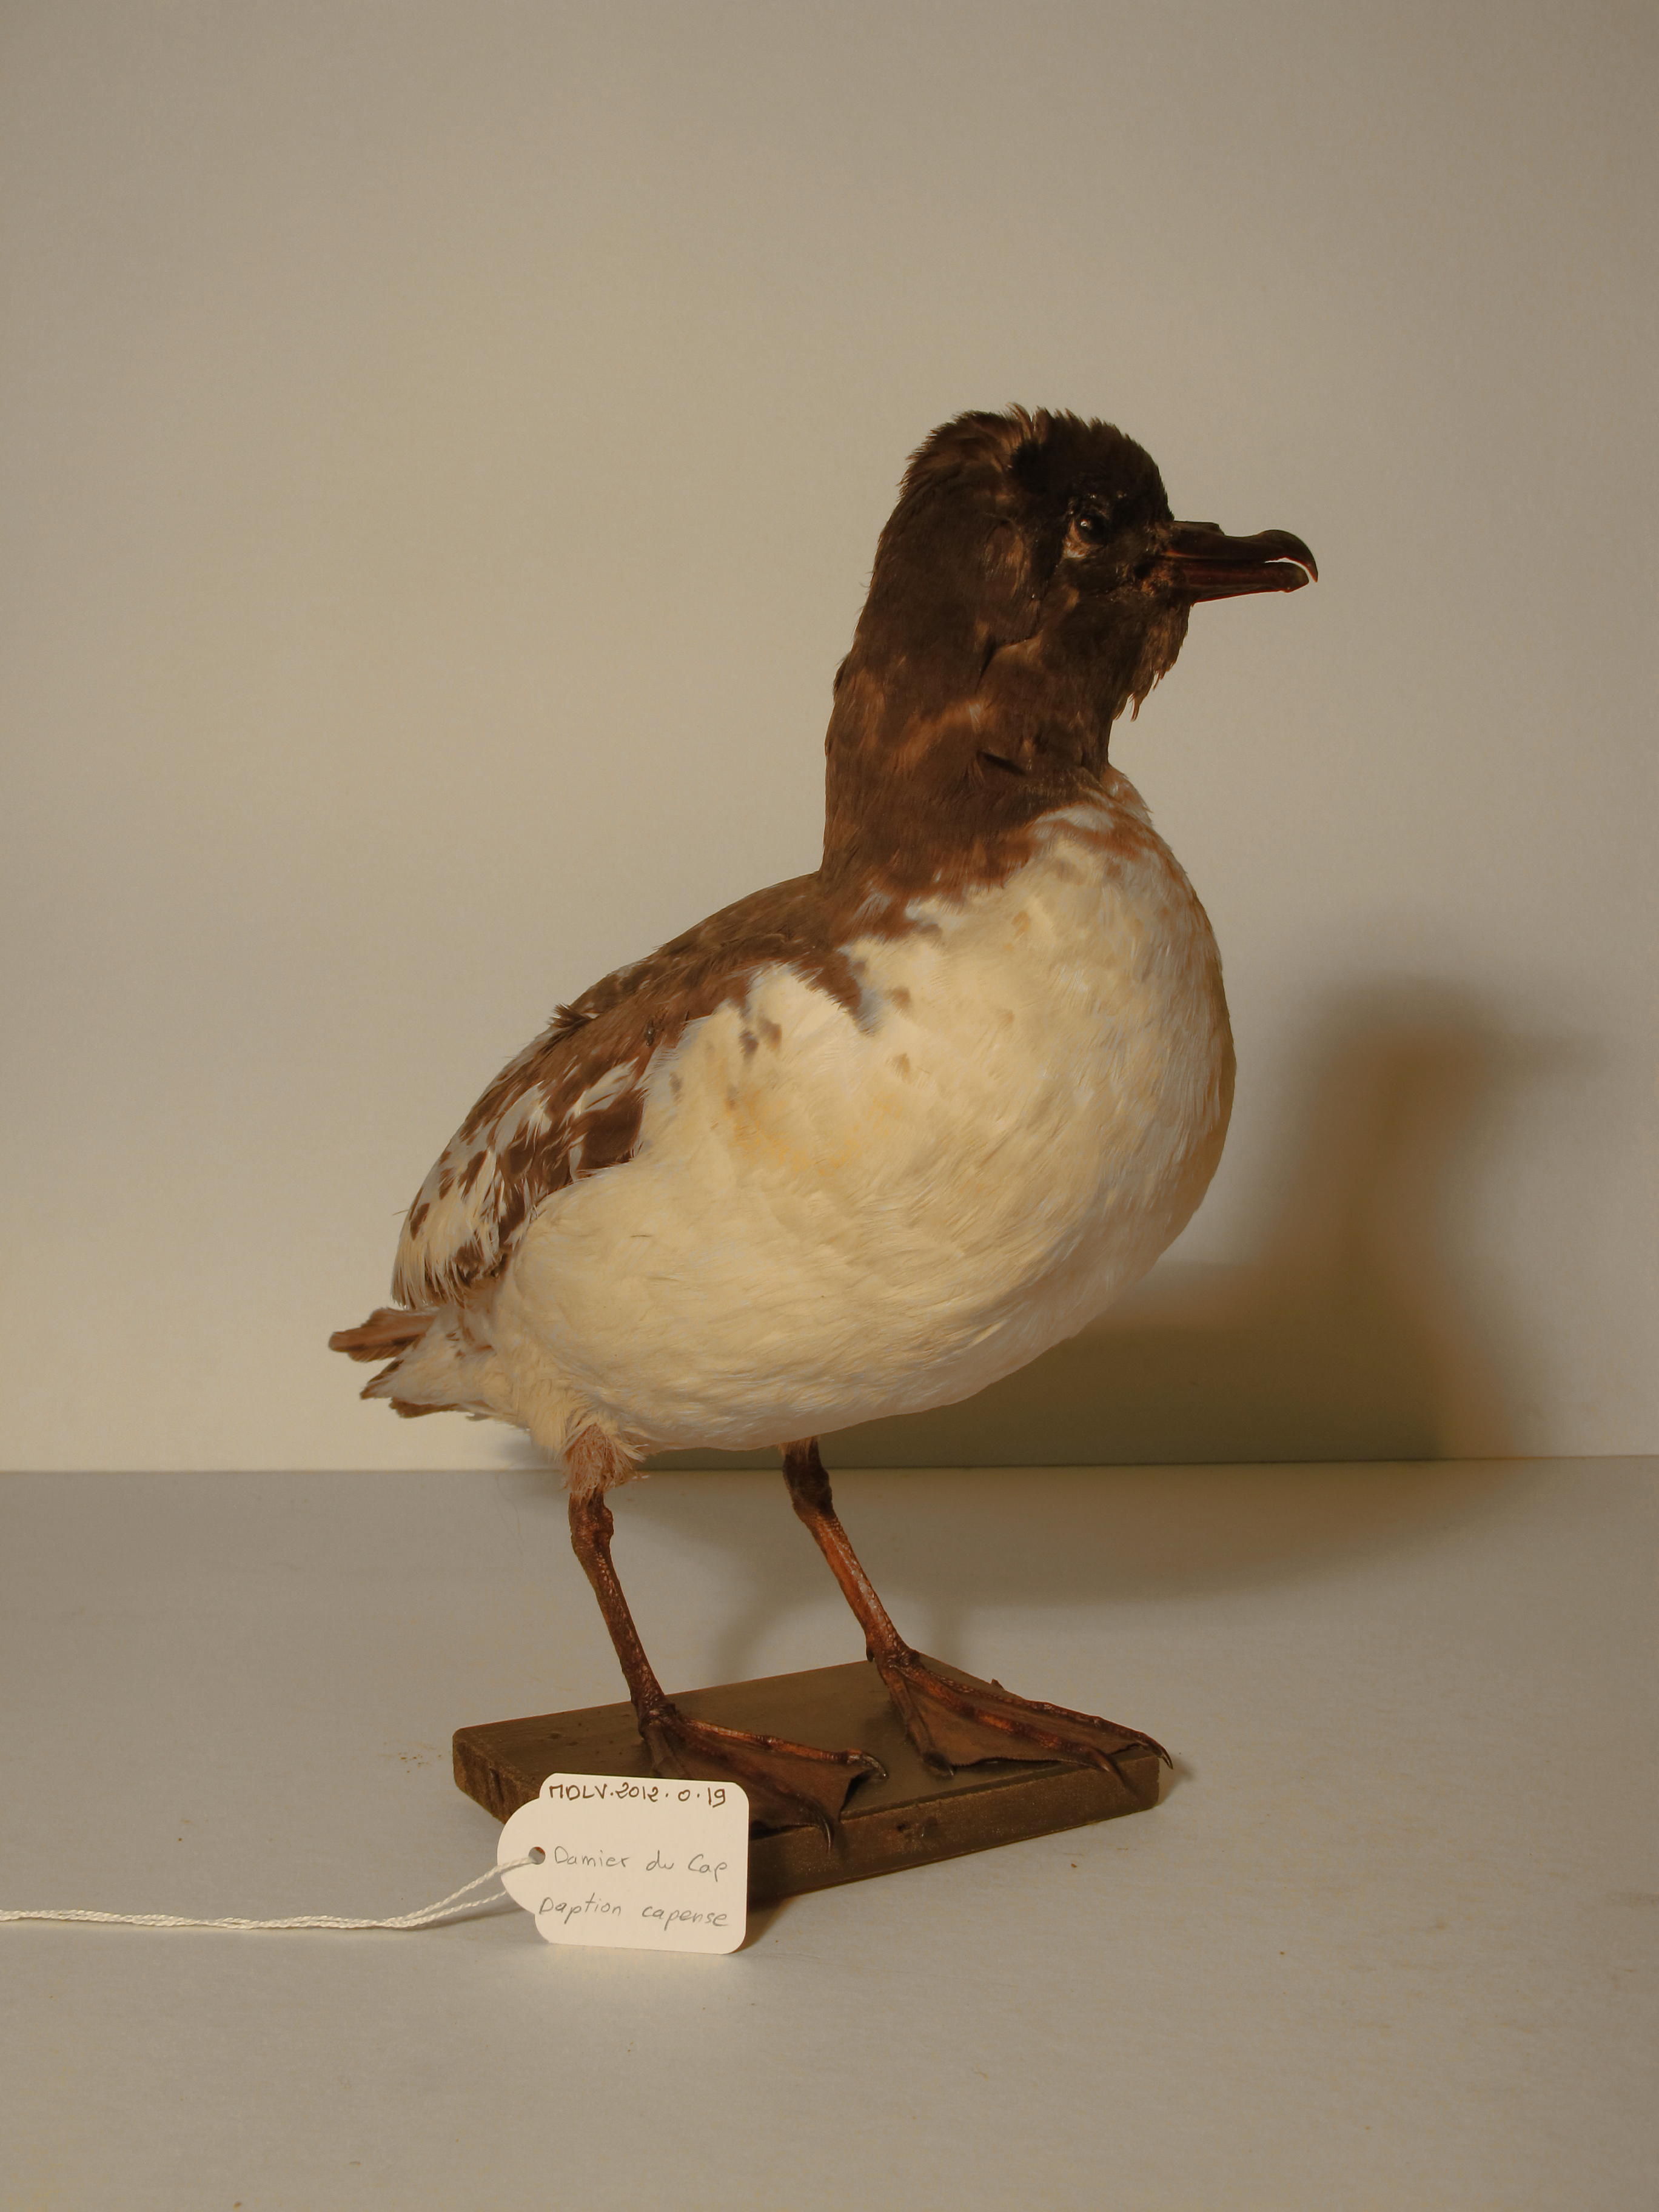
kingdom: Animalia
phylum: Chordata
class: Aves
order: Procellariiformes
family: Procellariidae
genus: Daption
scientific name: Daption capense
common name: Cape Petrel
